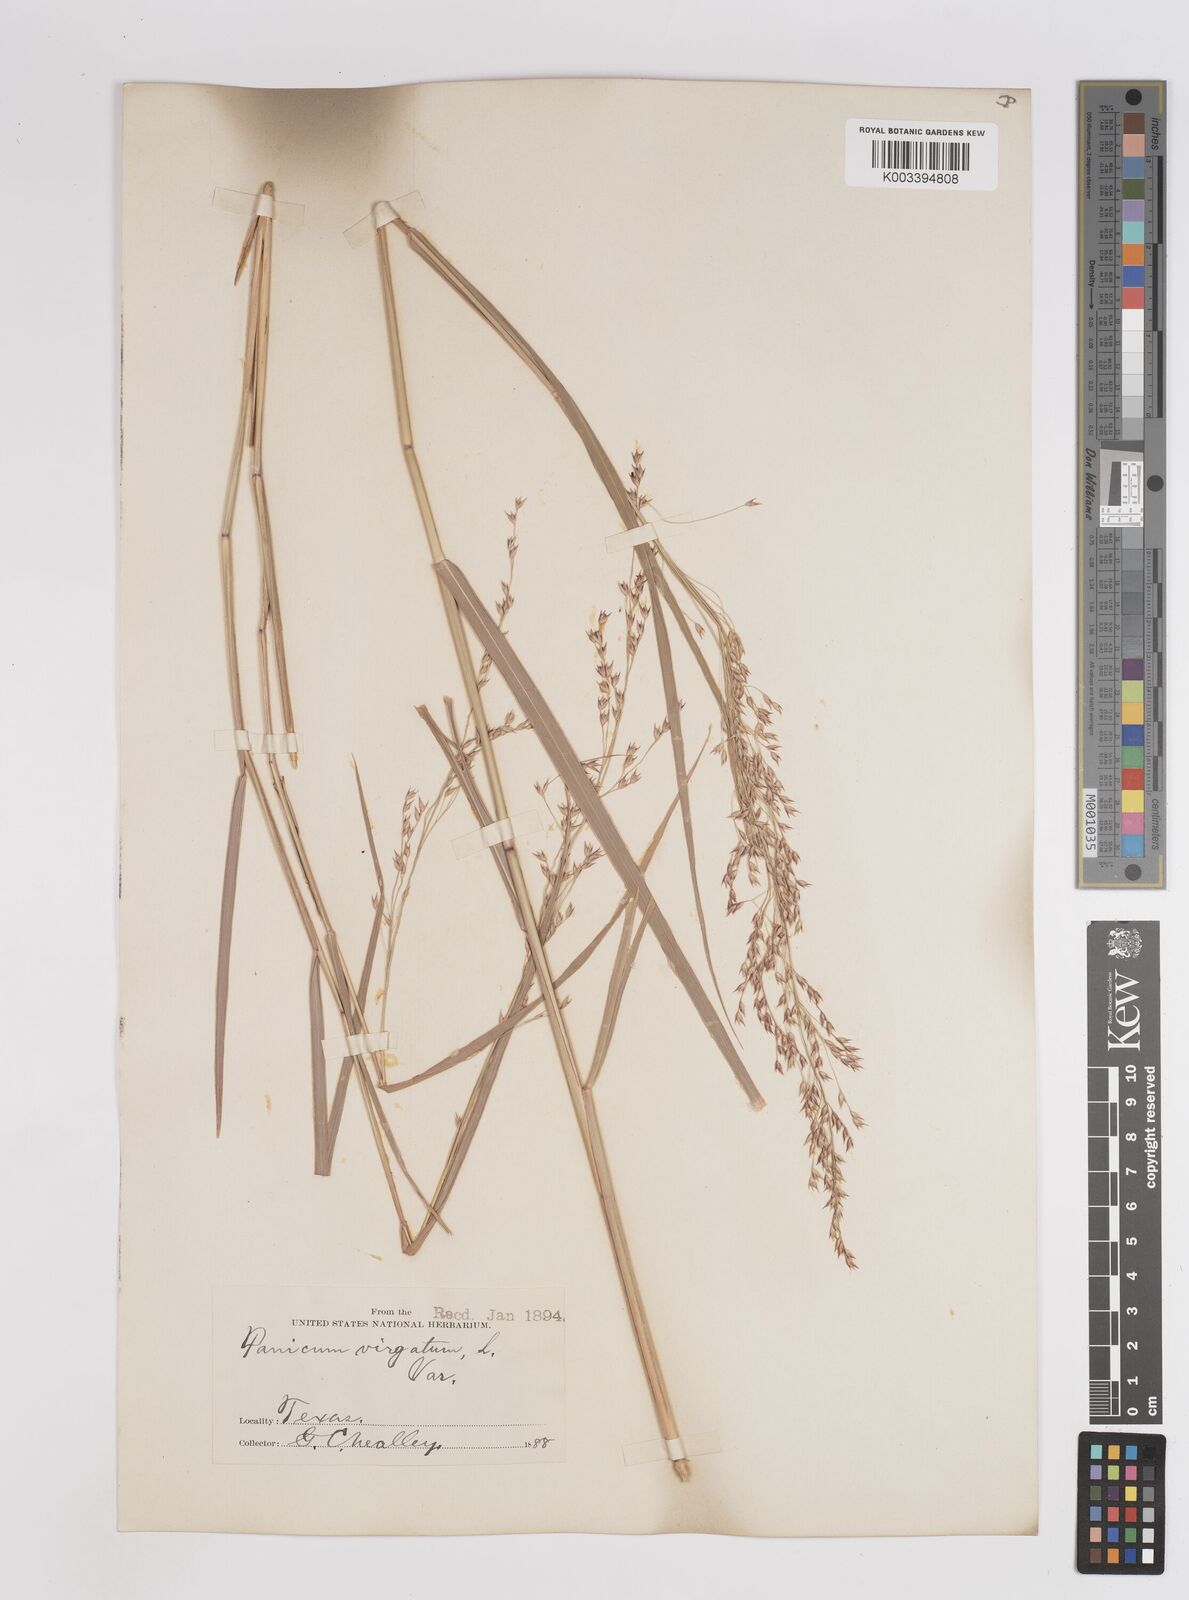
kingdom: Plantae
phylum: Tracheophyta
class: Liliopsida
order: Poales
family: Poaceae
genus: Panicum
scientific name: Panicum virgatum
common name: Switchgrass
